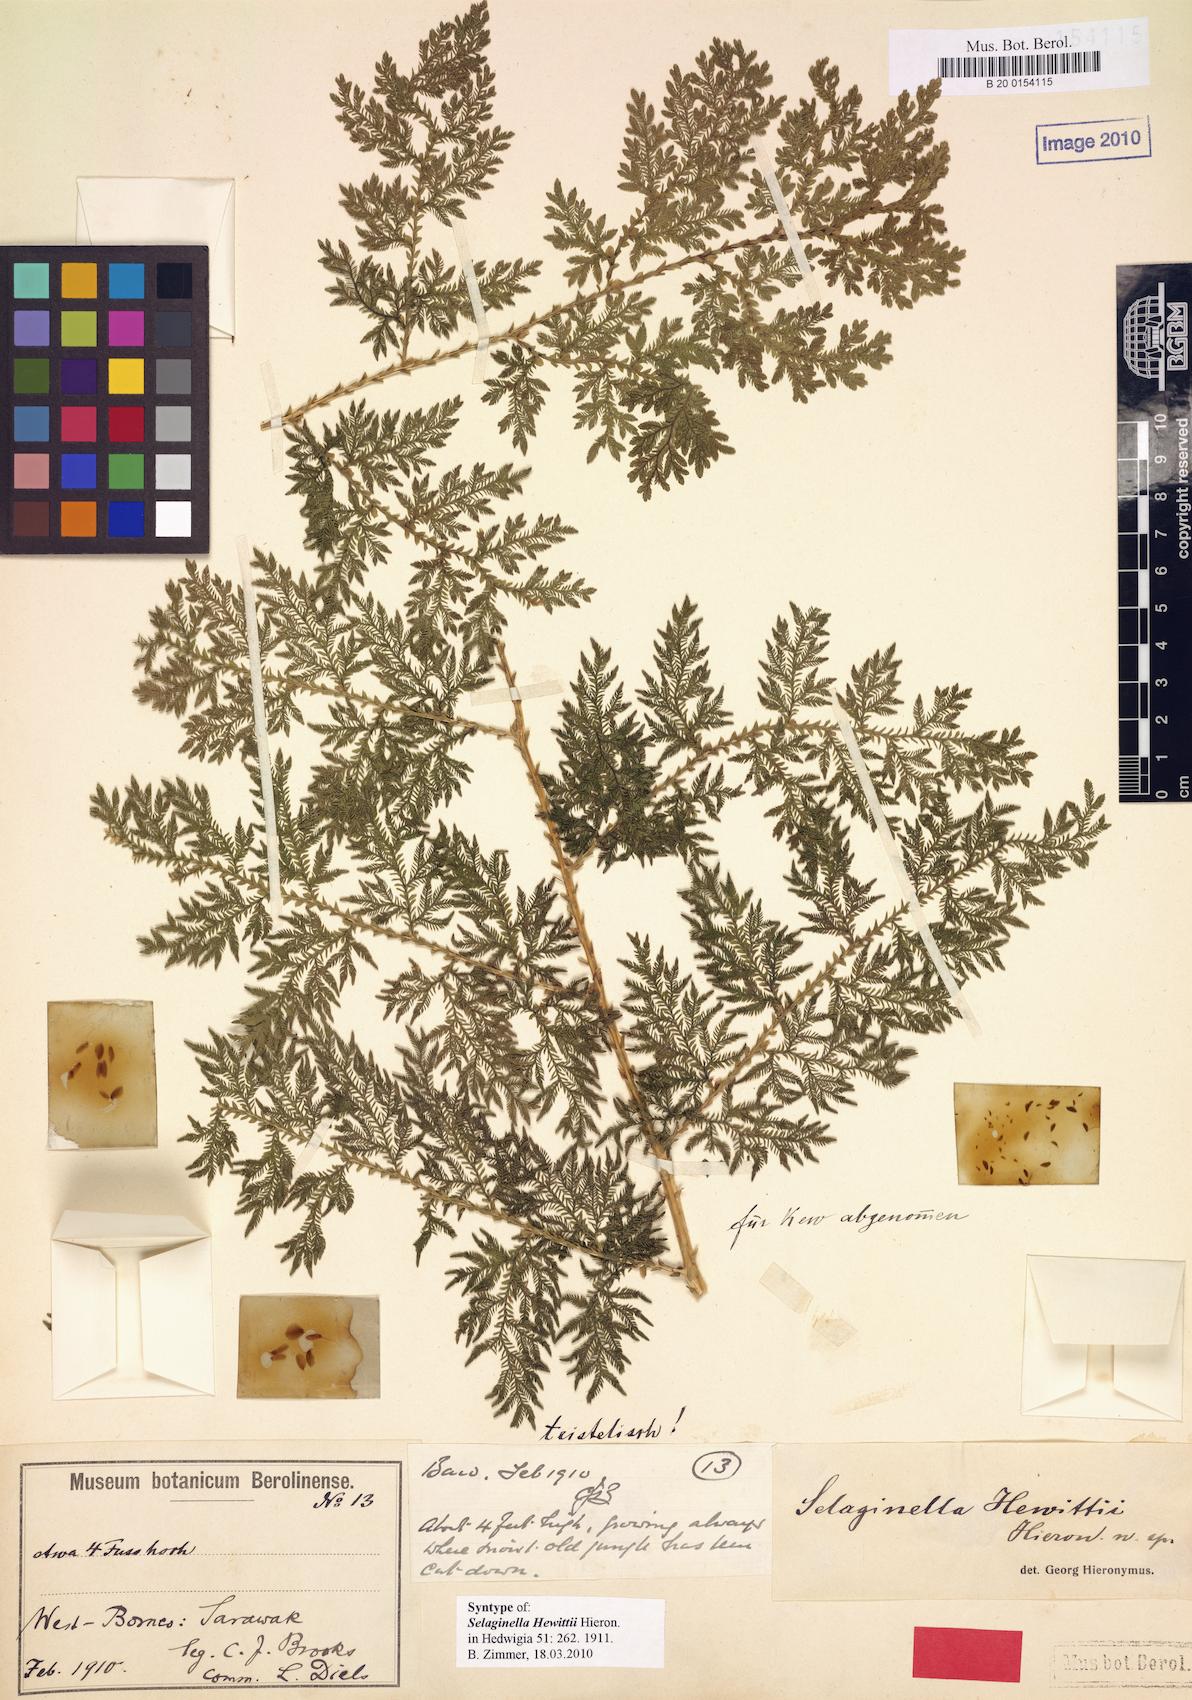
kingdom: Plantae
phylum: Tracheophyta
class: Lycopodiopsida
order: Selaginellales
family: Selaginellaceae
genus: Selaginella
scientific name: Selaginella hewittii
